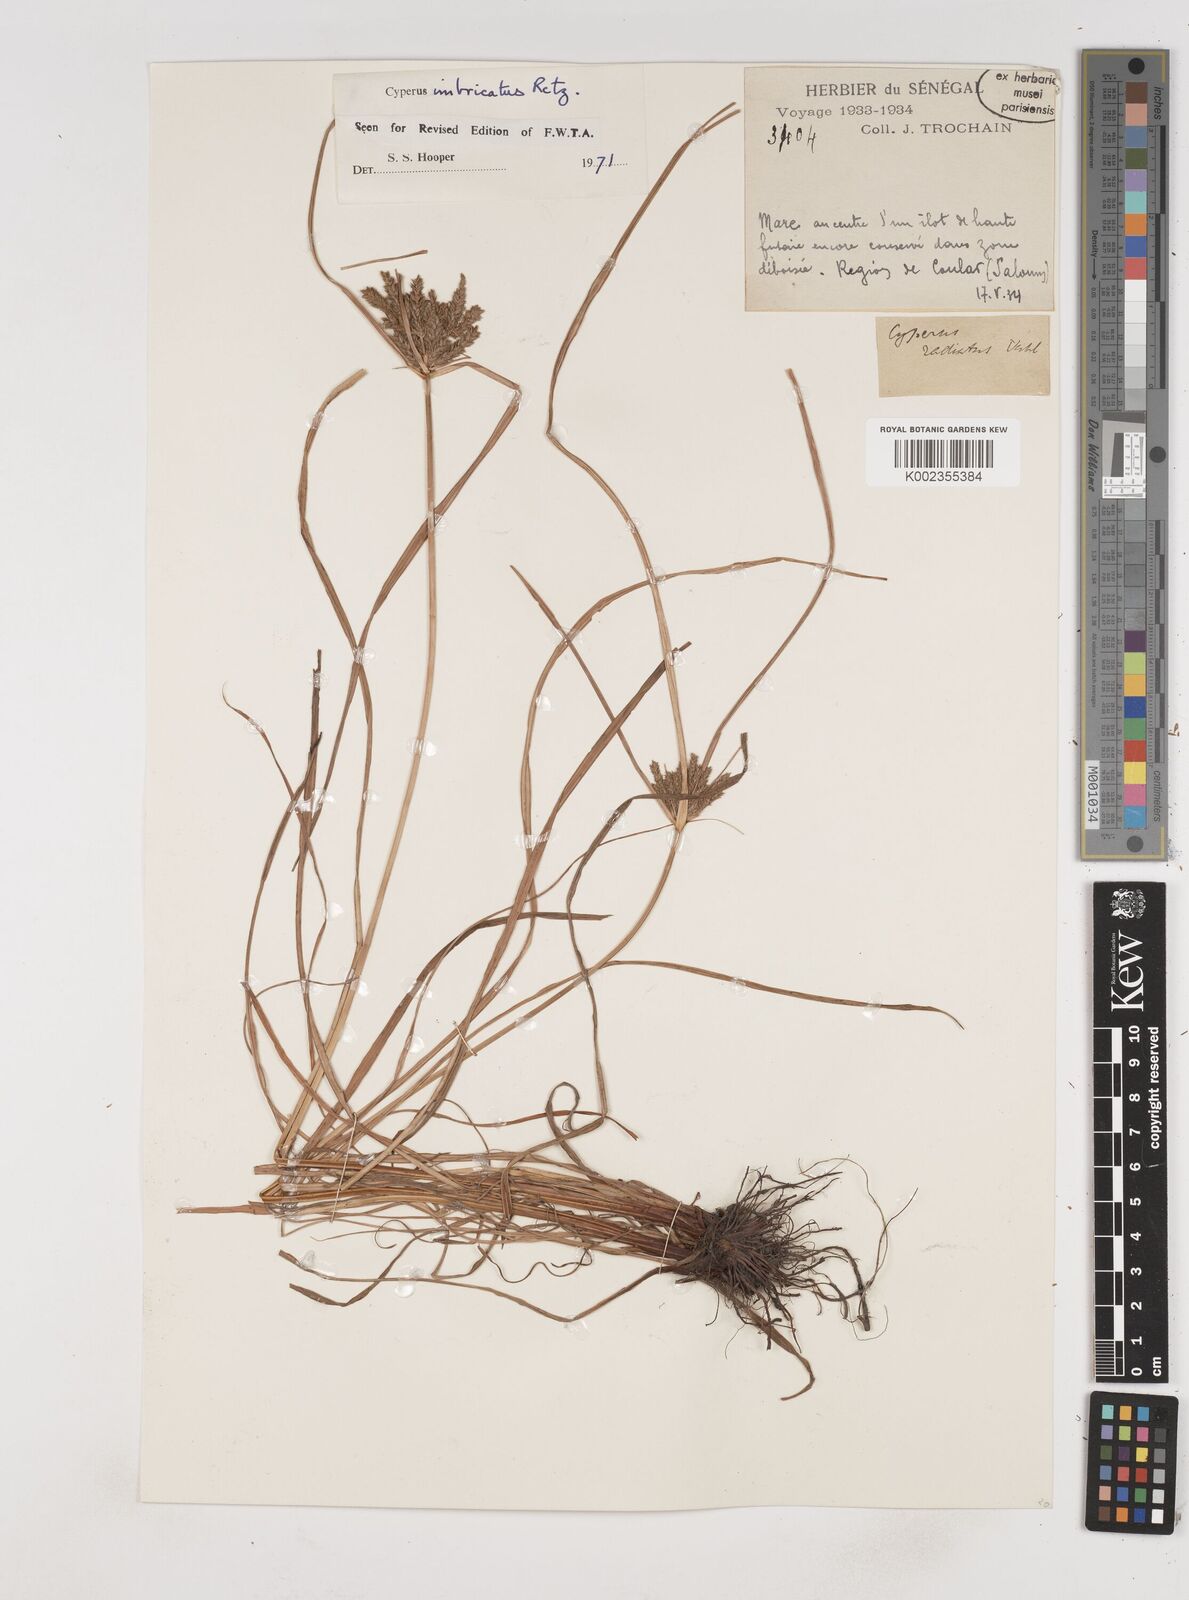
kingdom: Plantae
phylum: Tracheophyta
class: Liliopsida
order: Poales
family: Cyperaceae
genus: Cyperus
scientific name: Cyperus imbricatus
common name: Shingle flatsedge
